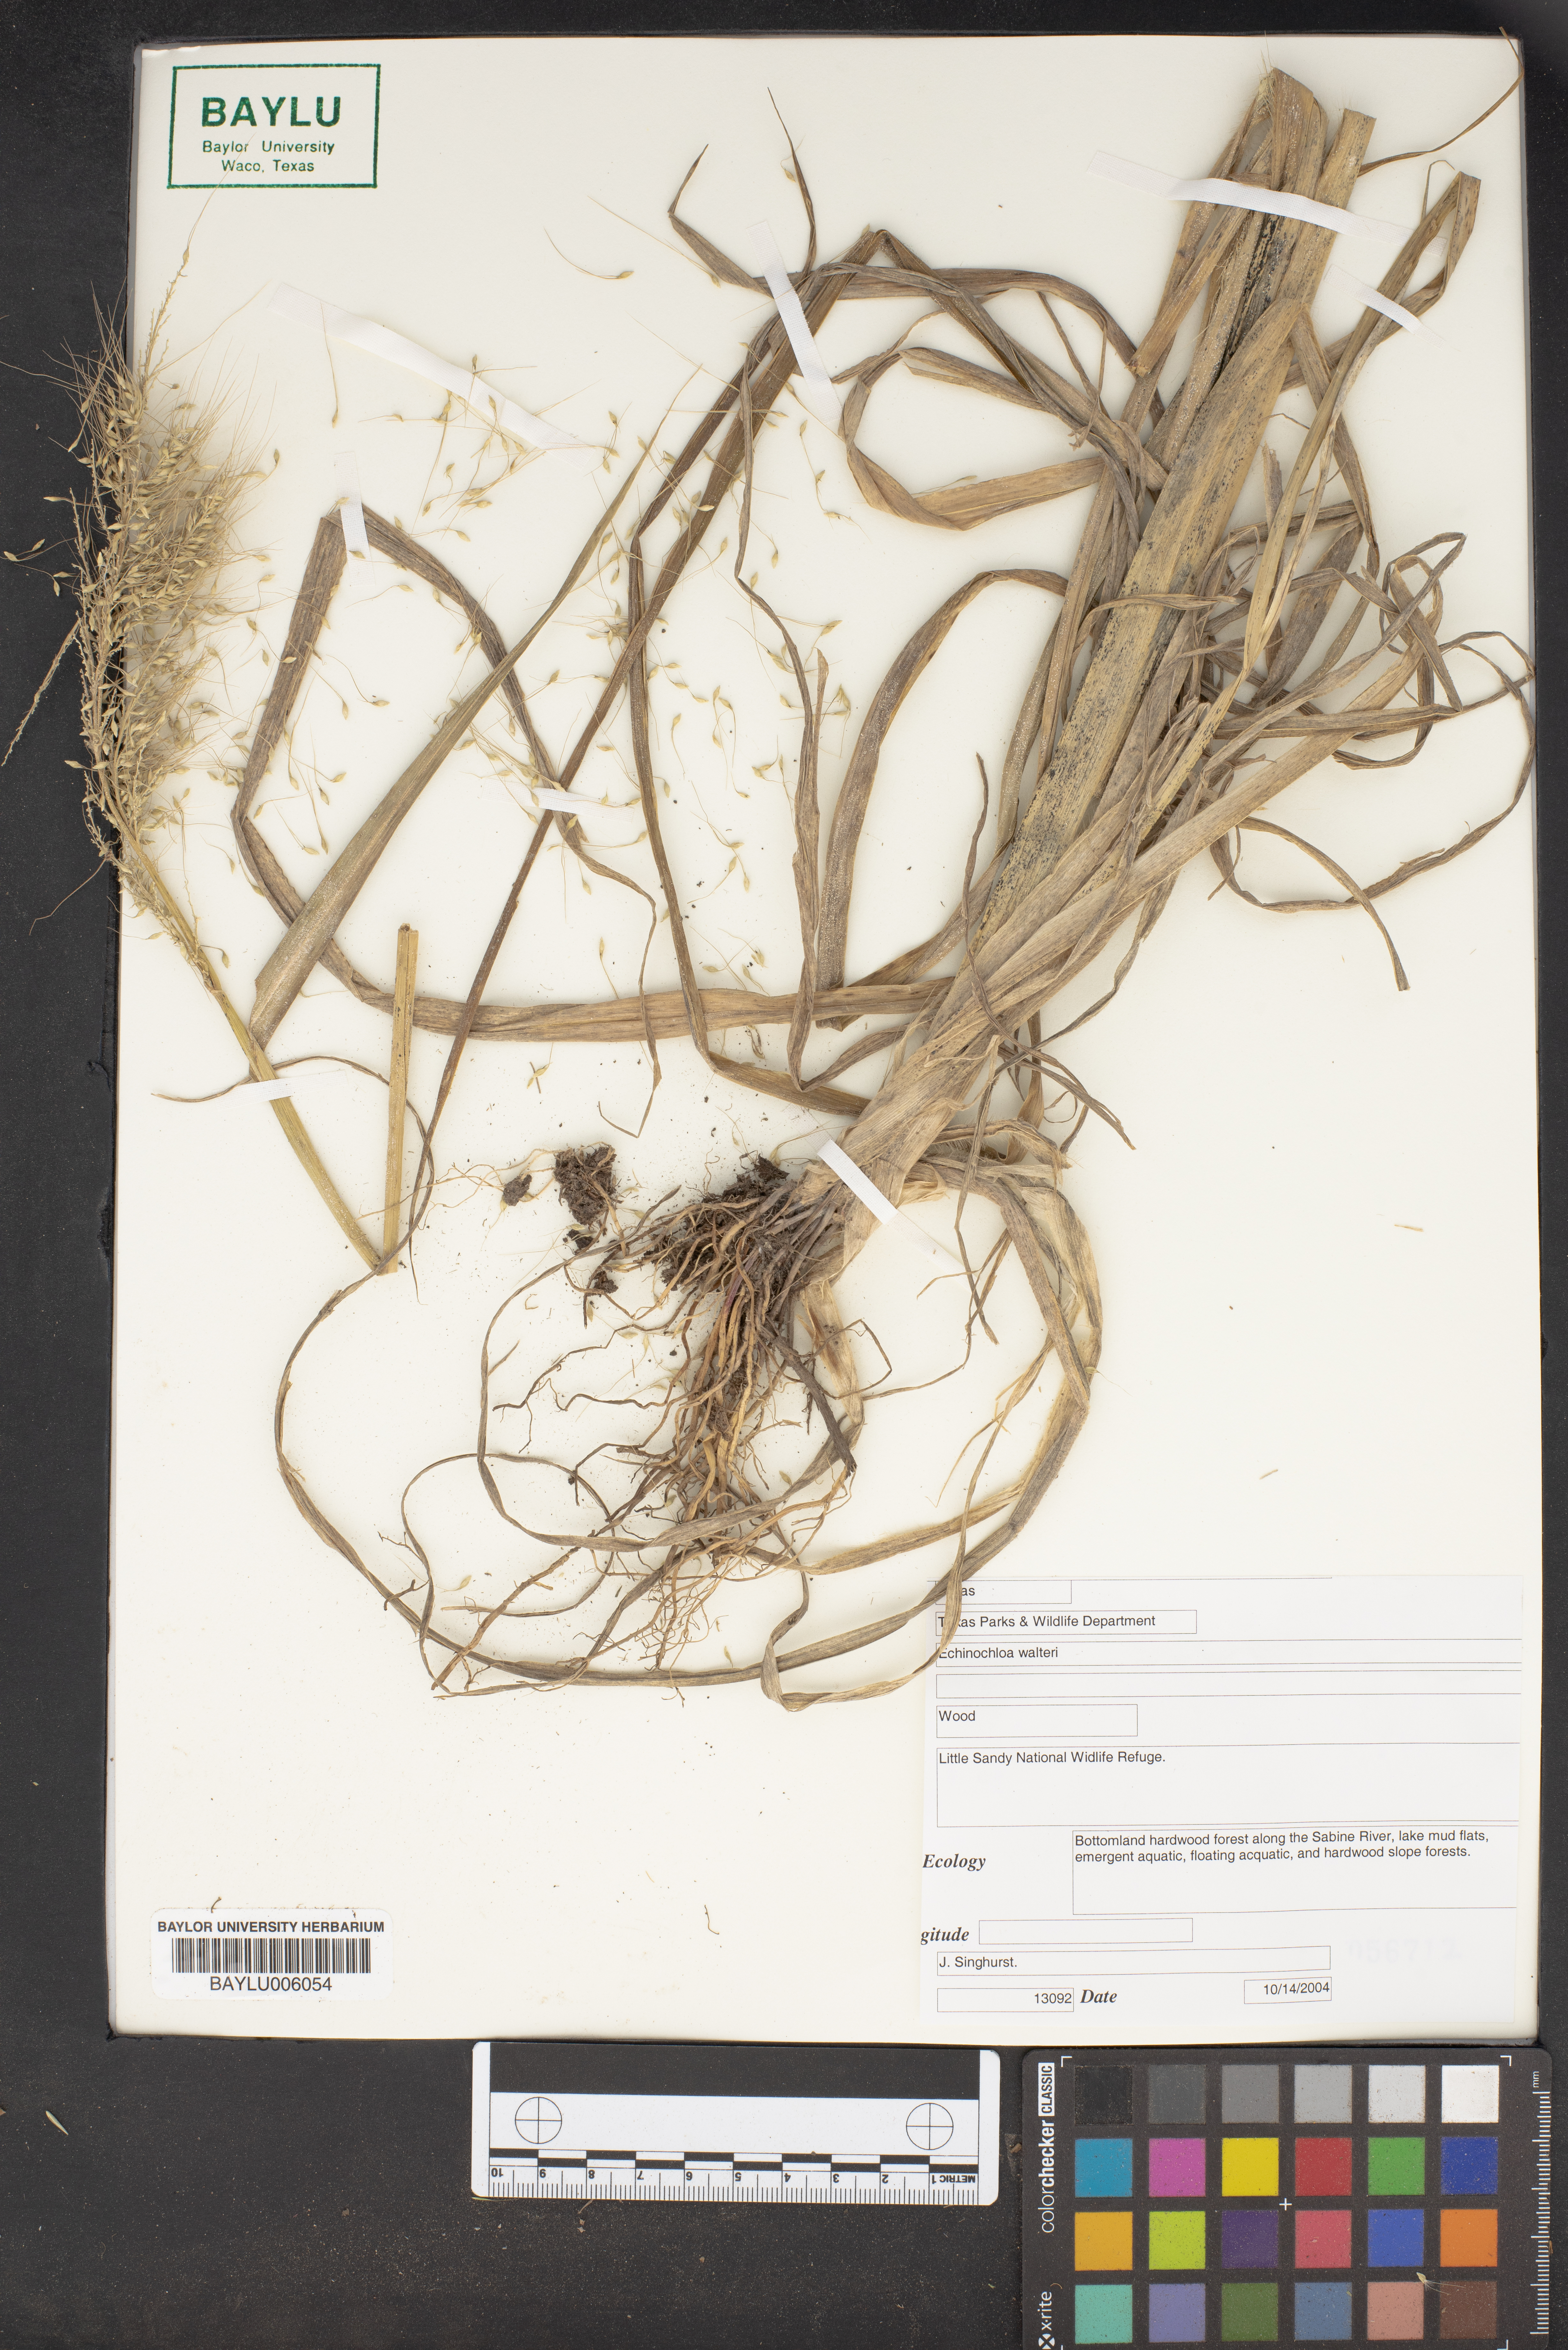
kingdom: Plantae
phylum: Tracheophyta
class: Liliopsida
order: Poales
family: Poaceae
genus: Echinochloa
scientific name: Echinochloa walteri
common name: Coast barnyard grass
